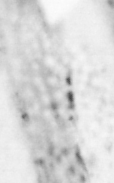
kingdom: Animalia
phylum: Chordata
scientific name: Chordata
